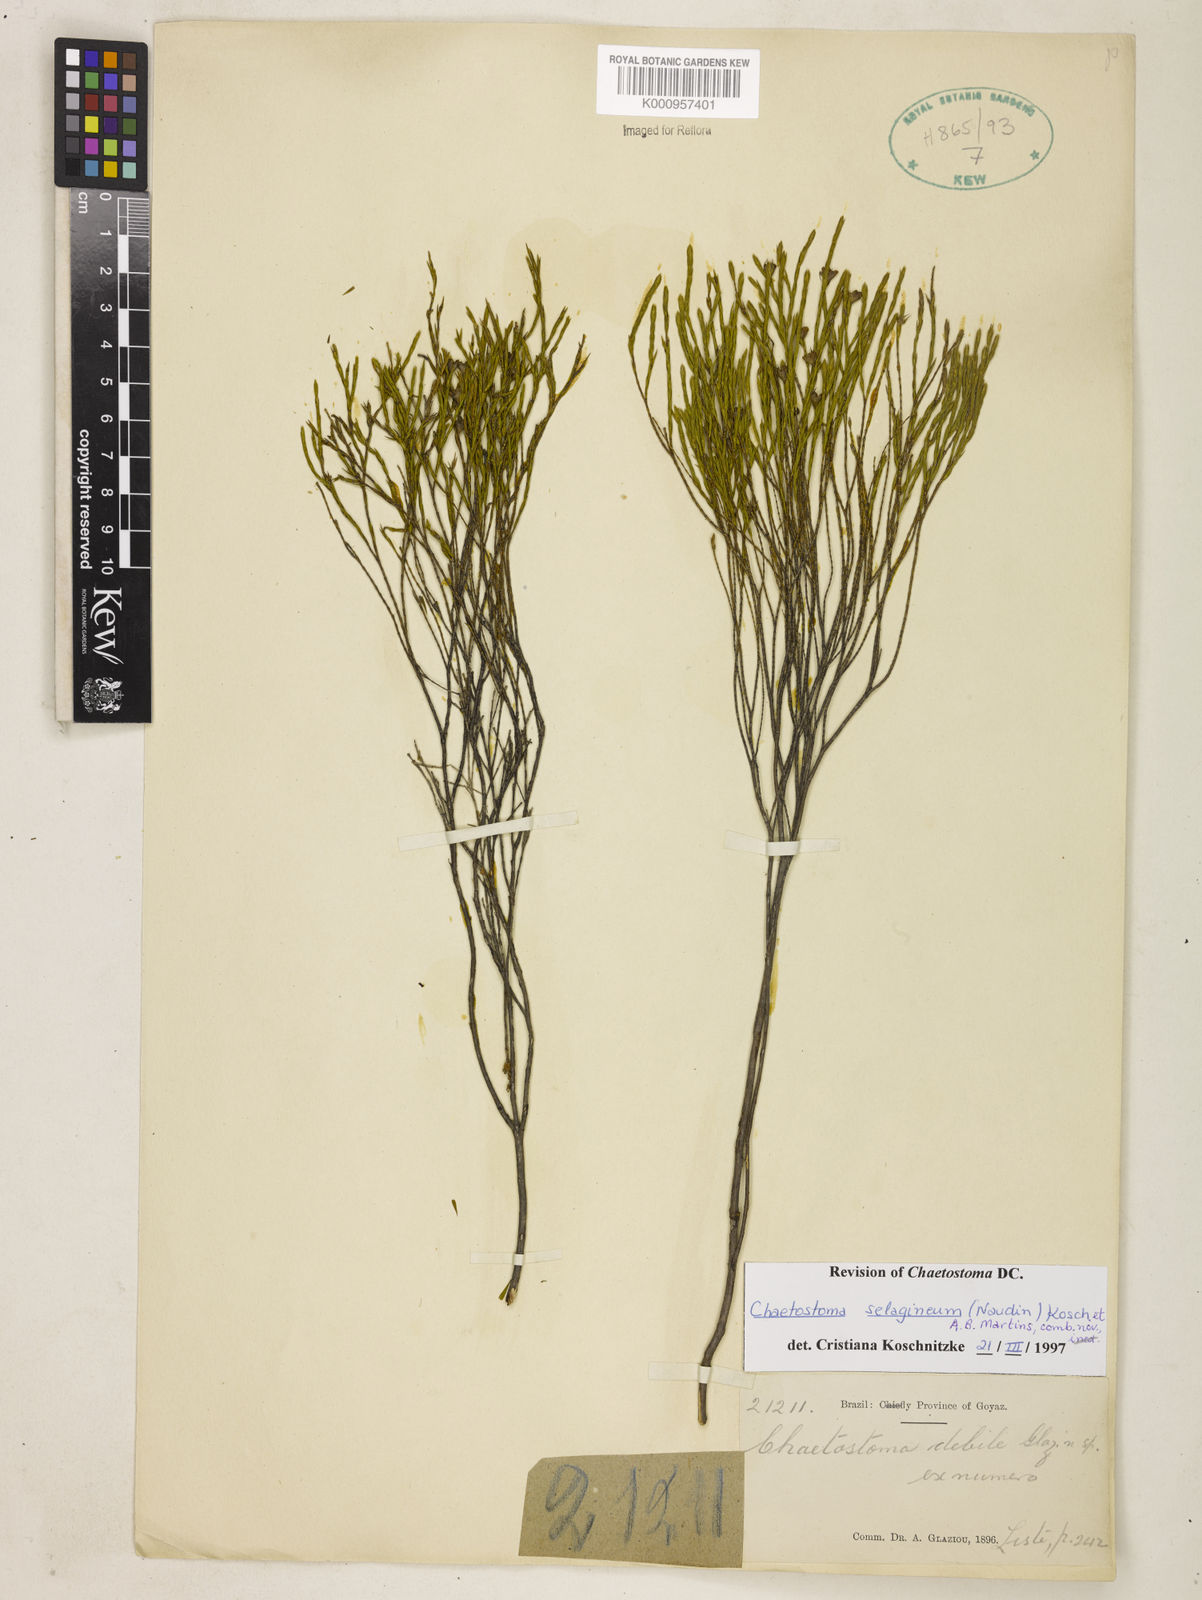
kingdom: Plantae
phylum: Tracheophyta
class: Magnoliopsida
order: Myrtales
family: Melastomataceae
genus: Microlicia
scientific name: Microlicia
